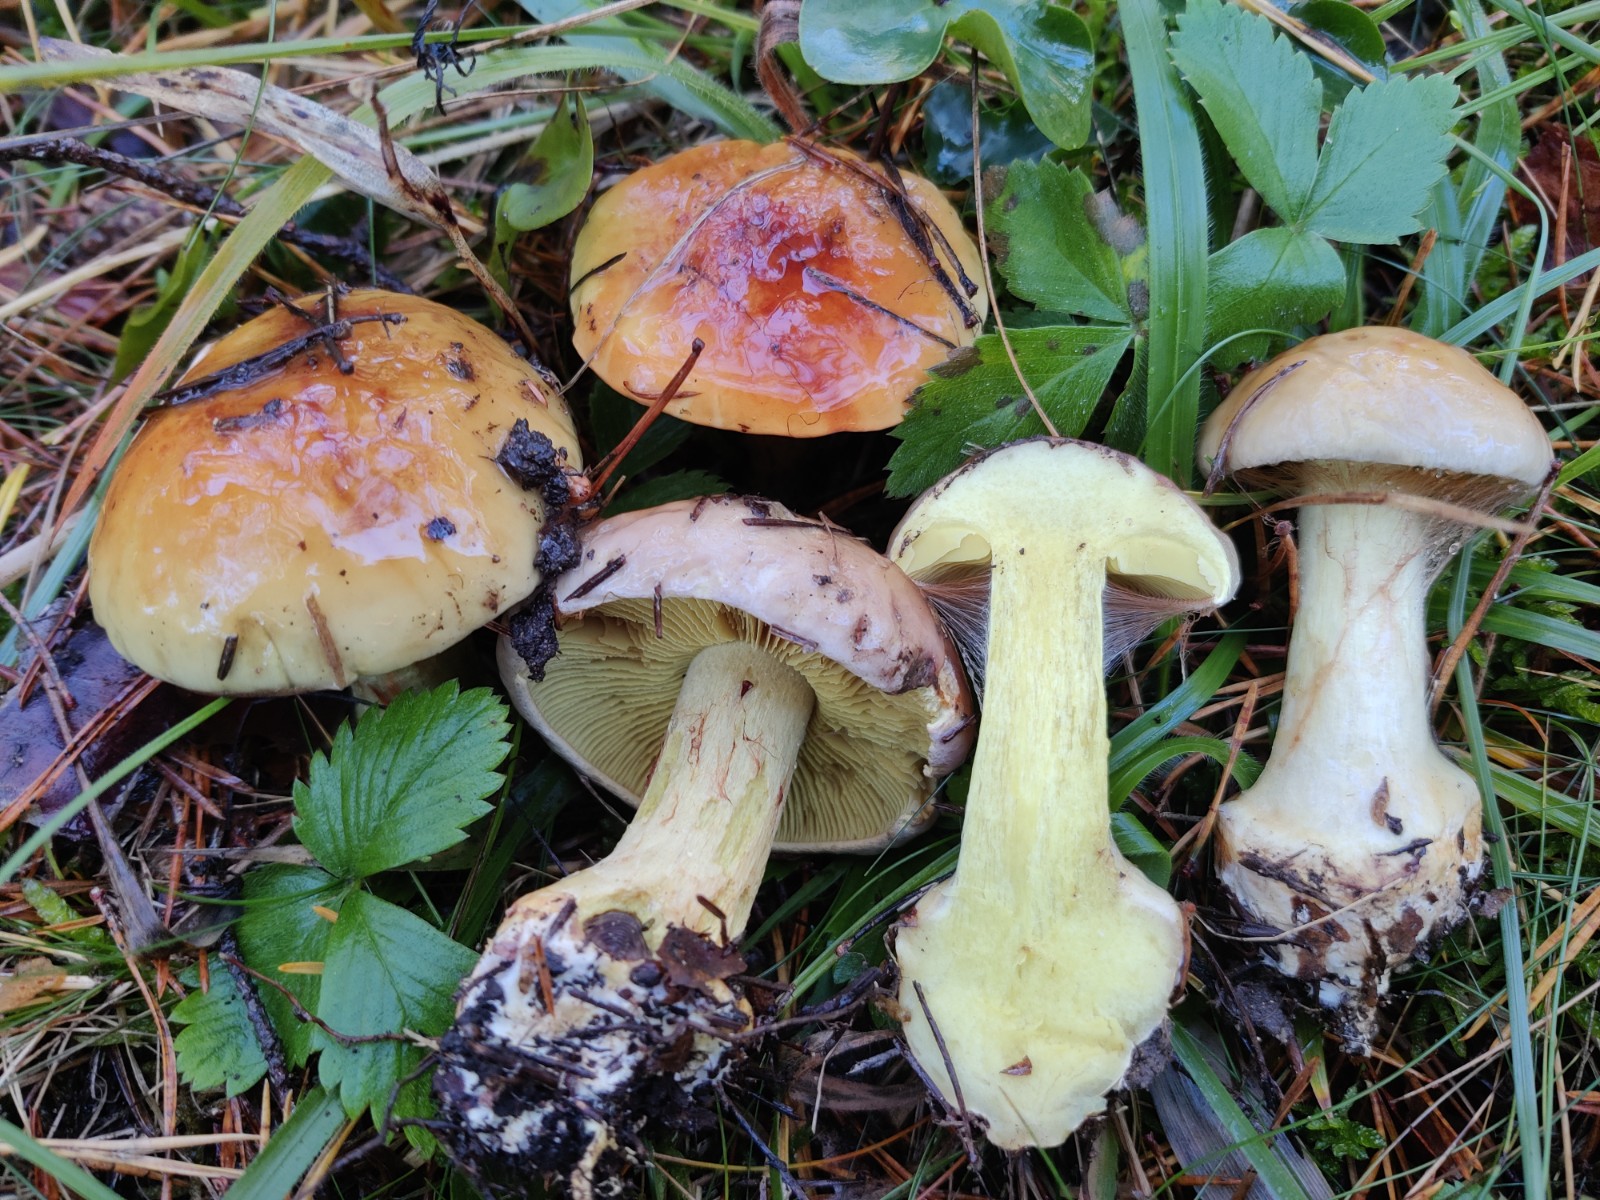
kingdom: Fungi
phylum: Basidiomycota
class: Agaricomycetes
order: Agaricales
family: Cortinariaceae
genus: Calonarius
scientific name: Calonarius odorifer
